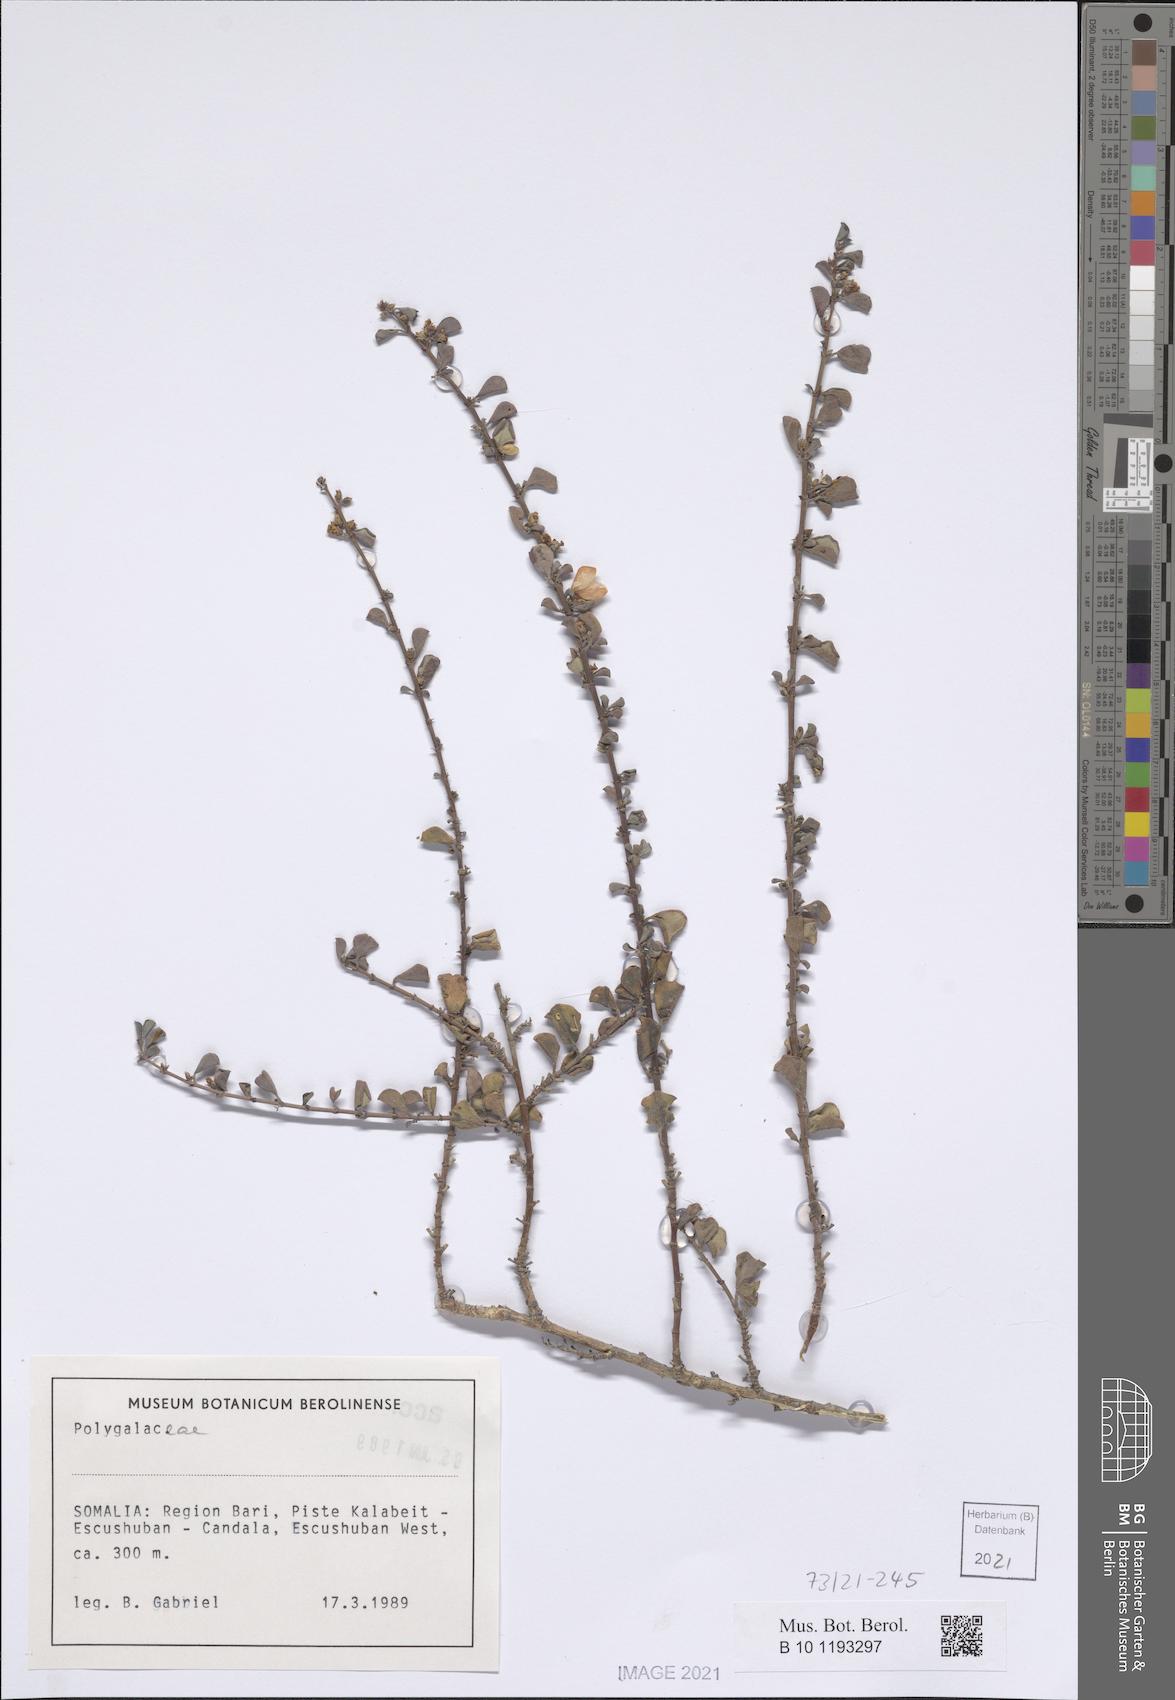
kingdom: Plantae
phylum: Tracheophyta
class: Magnoliopsida
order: Fabales
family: Polygalaceae
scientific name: Polygalaceae
